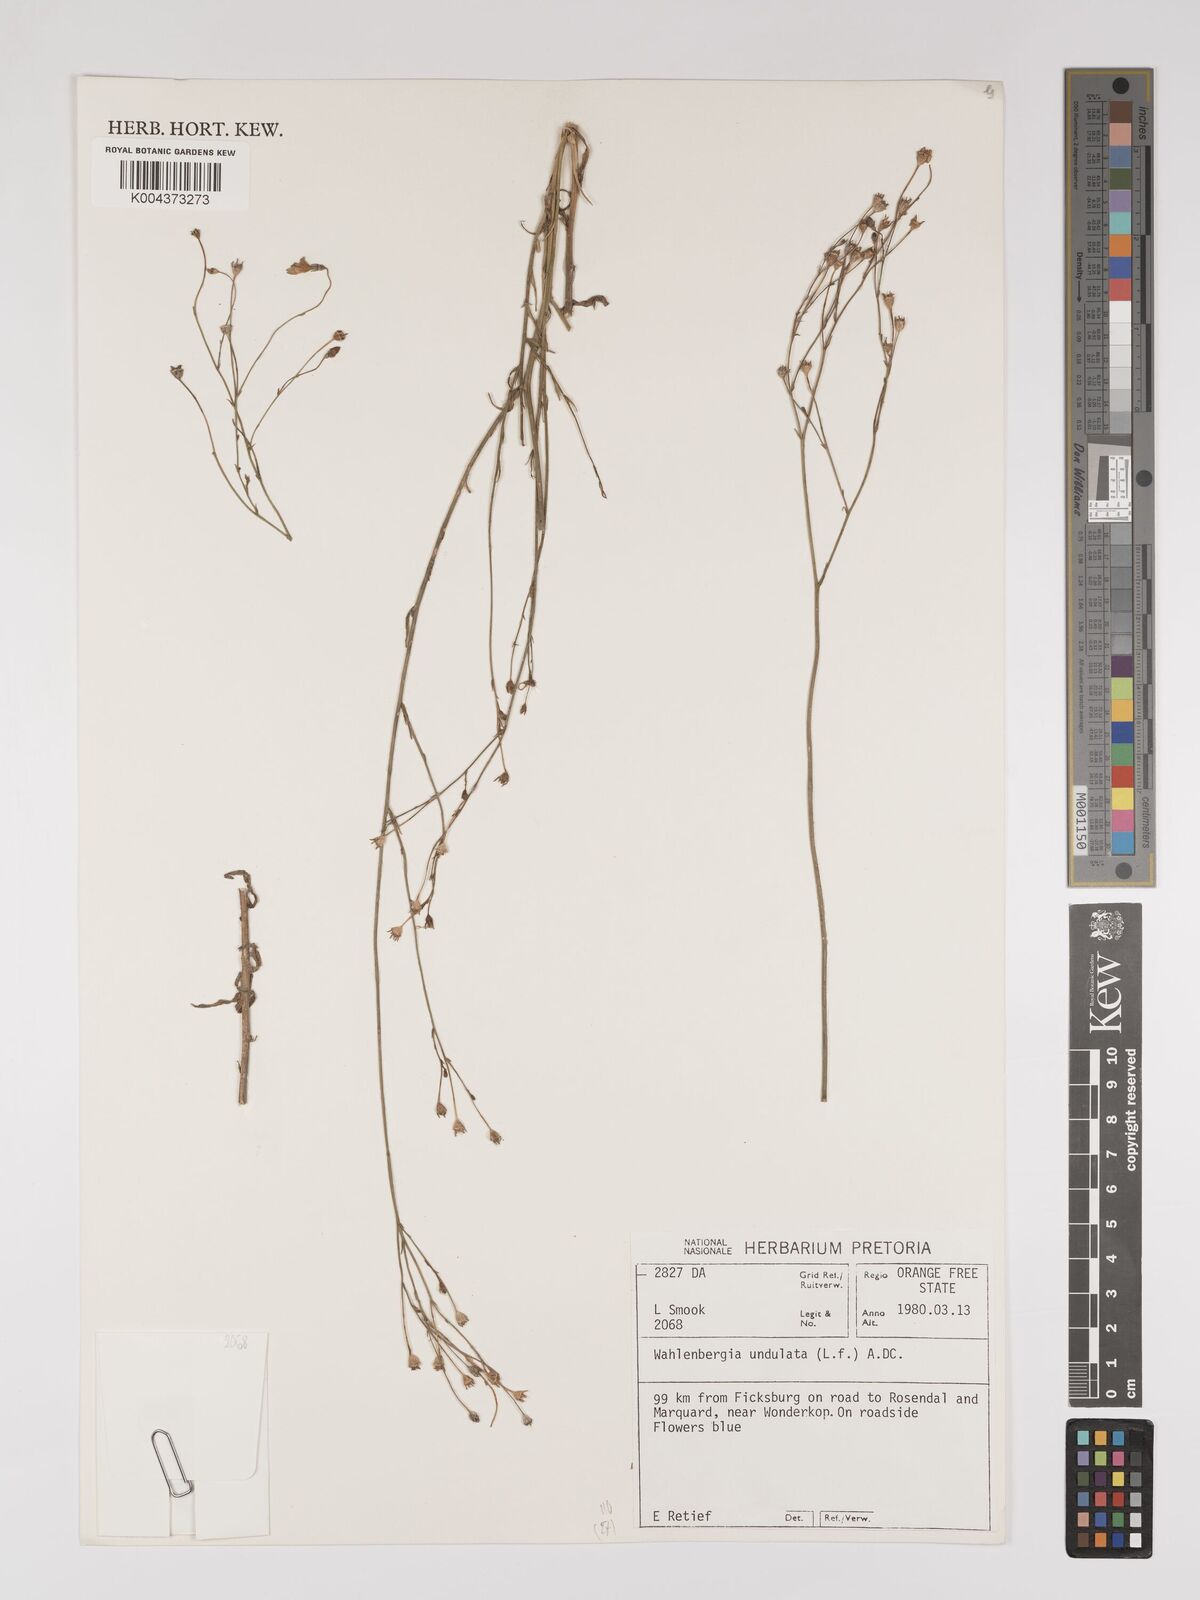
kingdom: Plantae
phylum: Tracheophyta
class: Magnoliopsida
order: Asterales
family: Campanulaceae
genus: Wahlenbergia
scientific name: Wahlenbergia undulata
